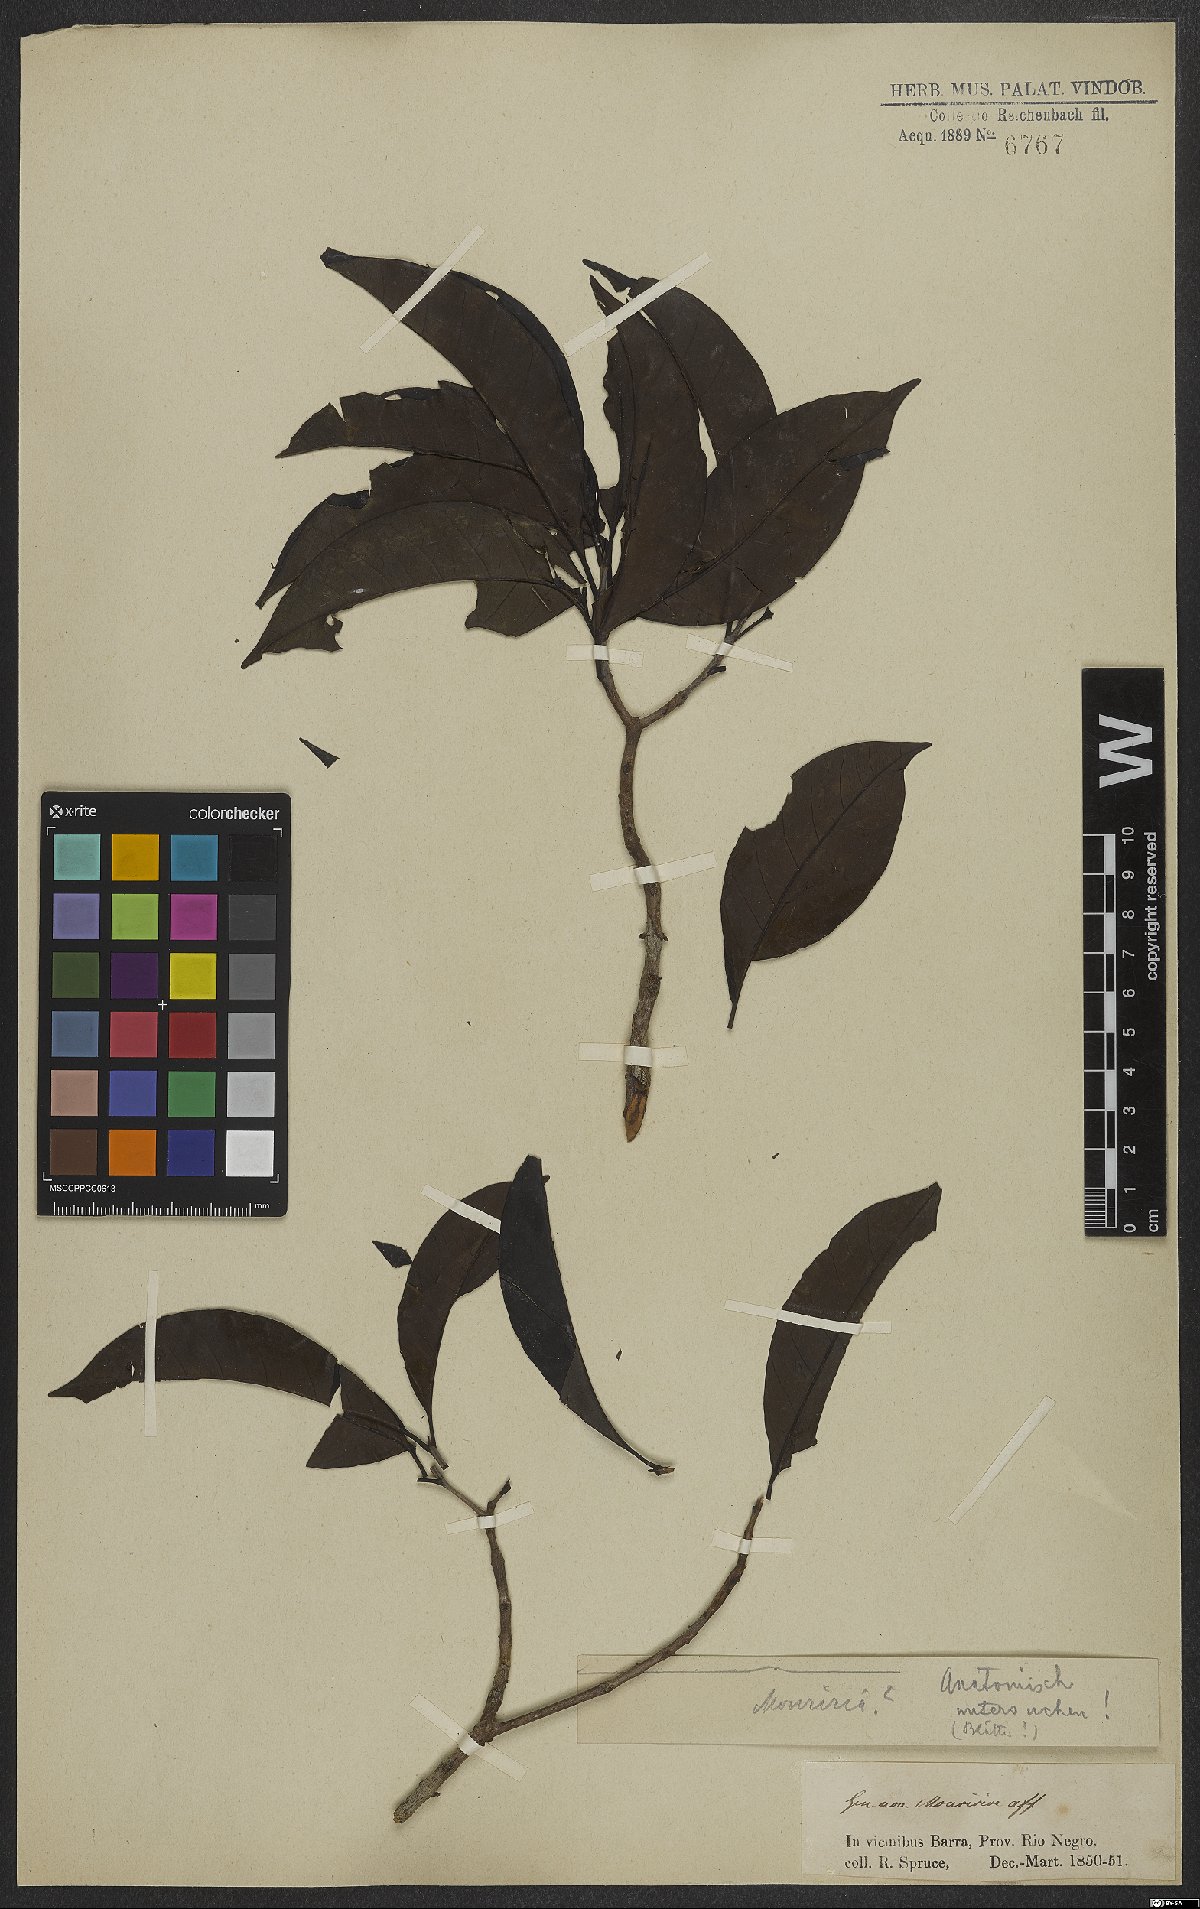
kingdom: Plantae
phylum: Tracheophyta
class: Magnoliopsida
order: Myrtales
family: Melastomataceae
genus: Mouriri
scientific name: Mouriri
